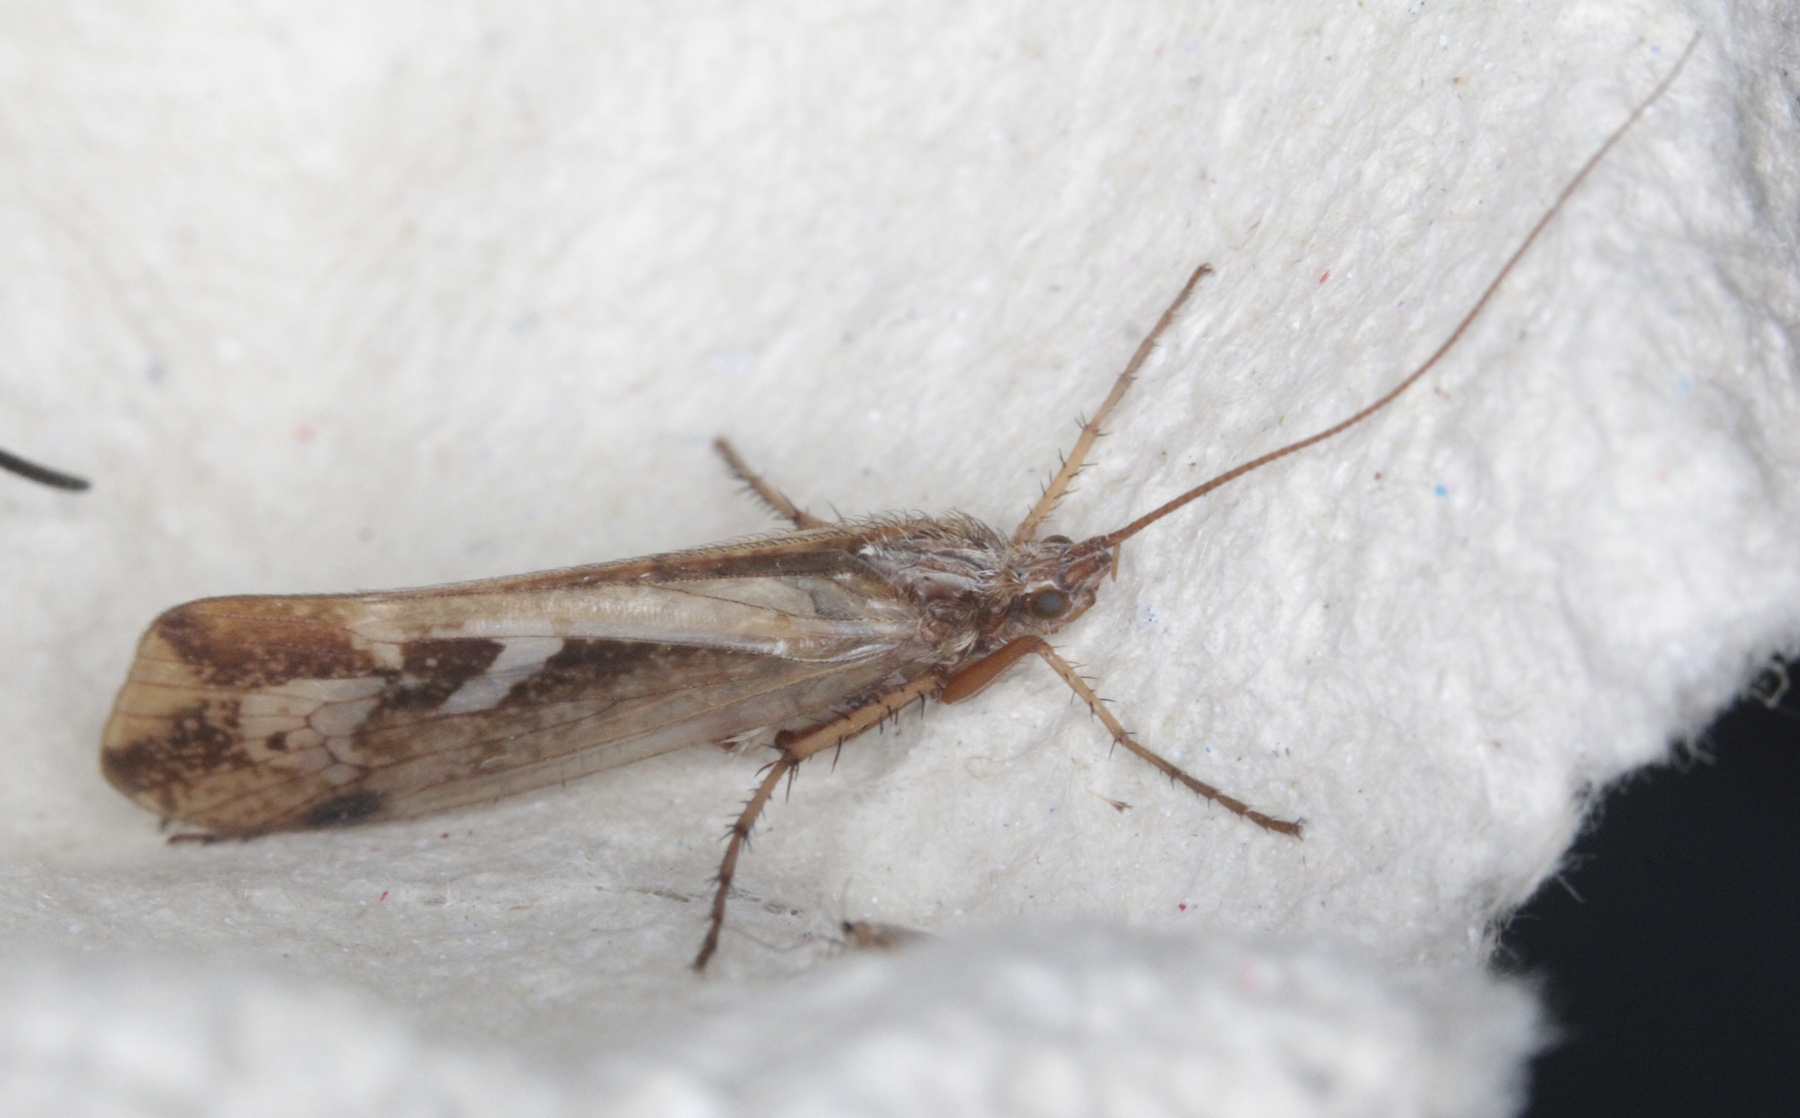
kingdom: Animalia
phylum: Arthropoda
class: Insecta
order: Trichoptera
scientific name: Trichoptera
